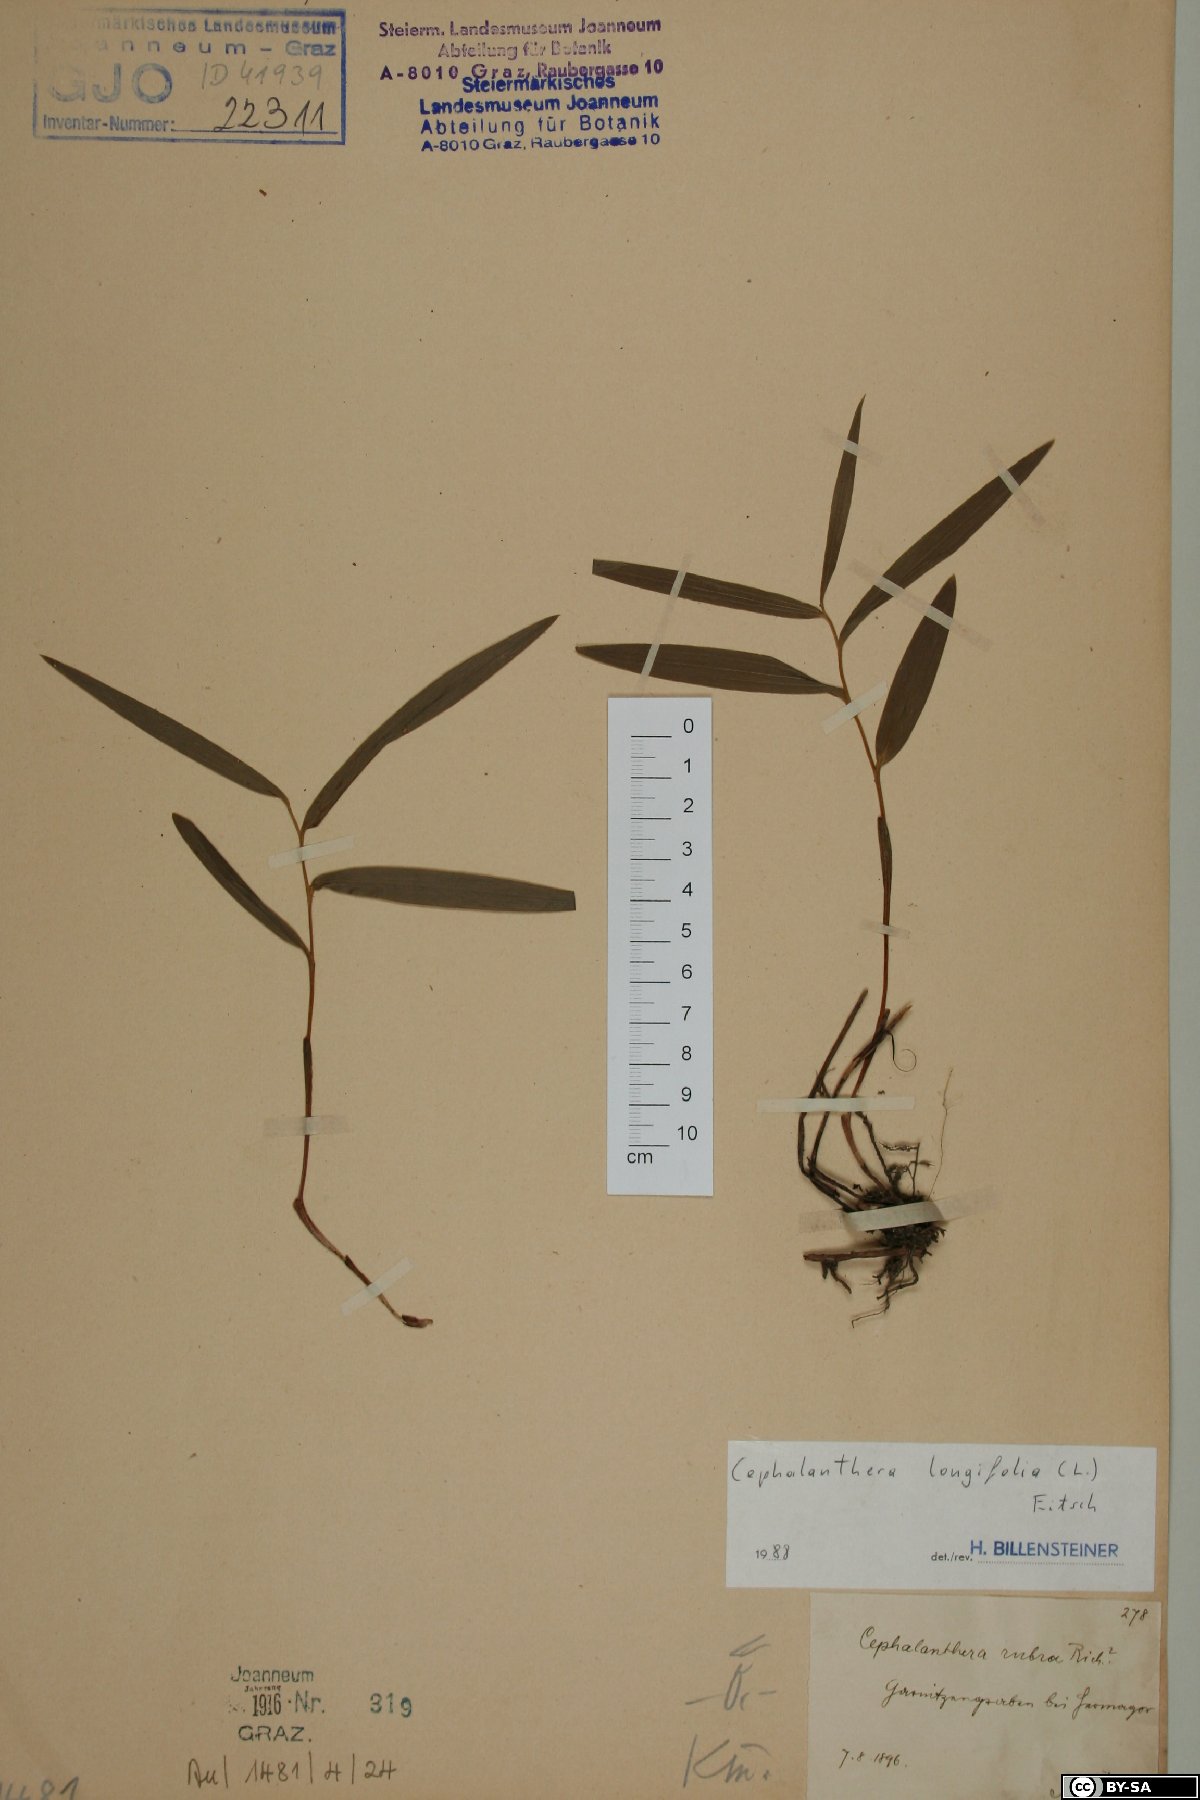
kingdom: Plantae
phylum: Tracheophyta
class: Liliopsida
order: Asparagales
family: Orchidaceae
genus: Cephalanthera
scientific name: Cephalanthera longifolia
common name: Narrow-leaved helleborine
